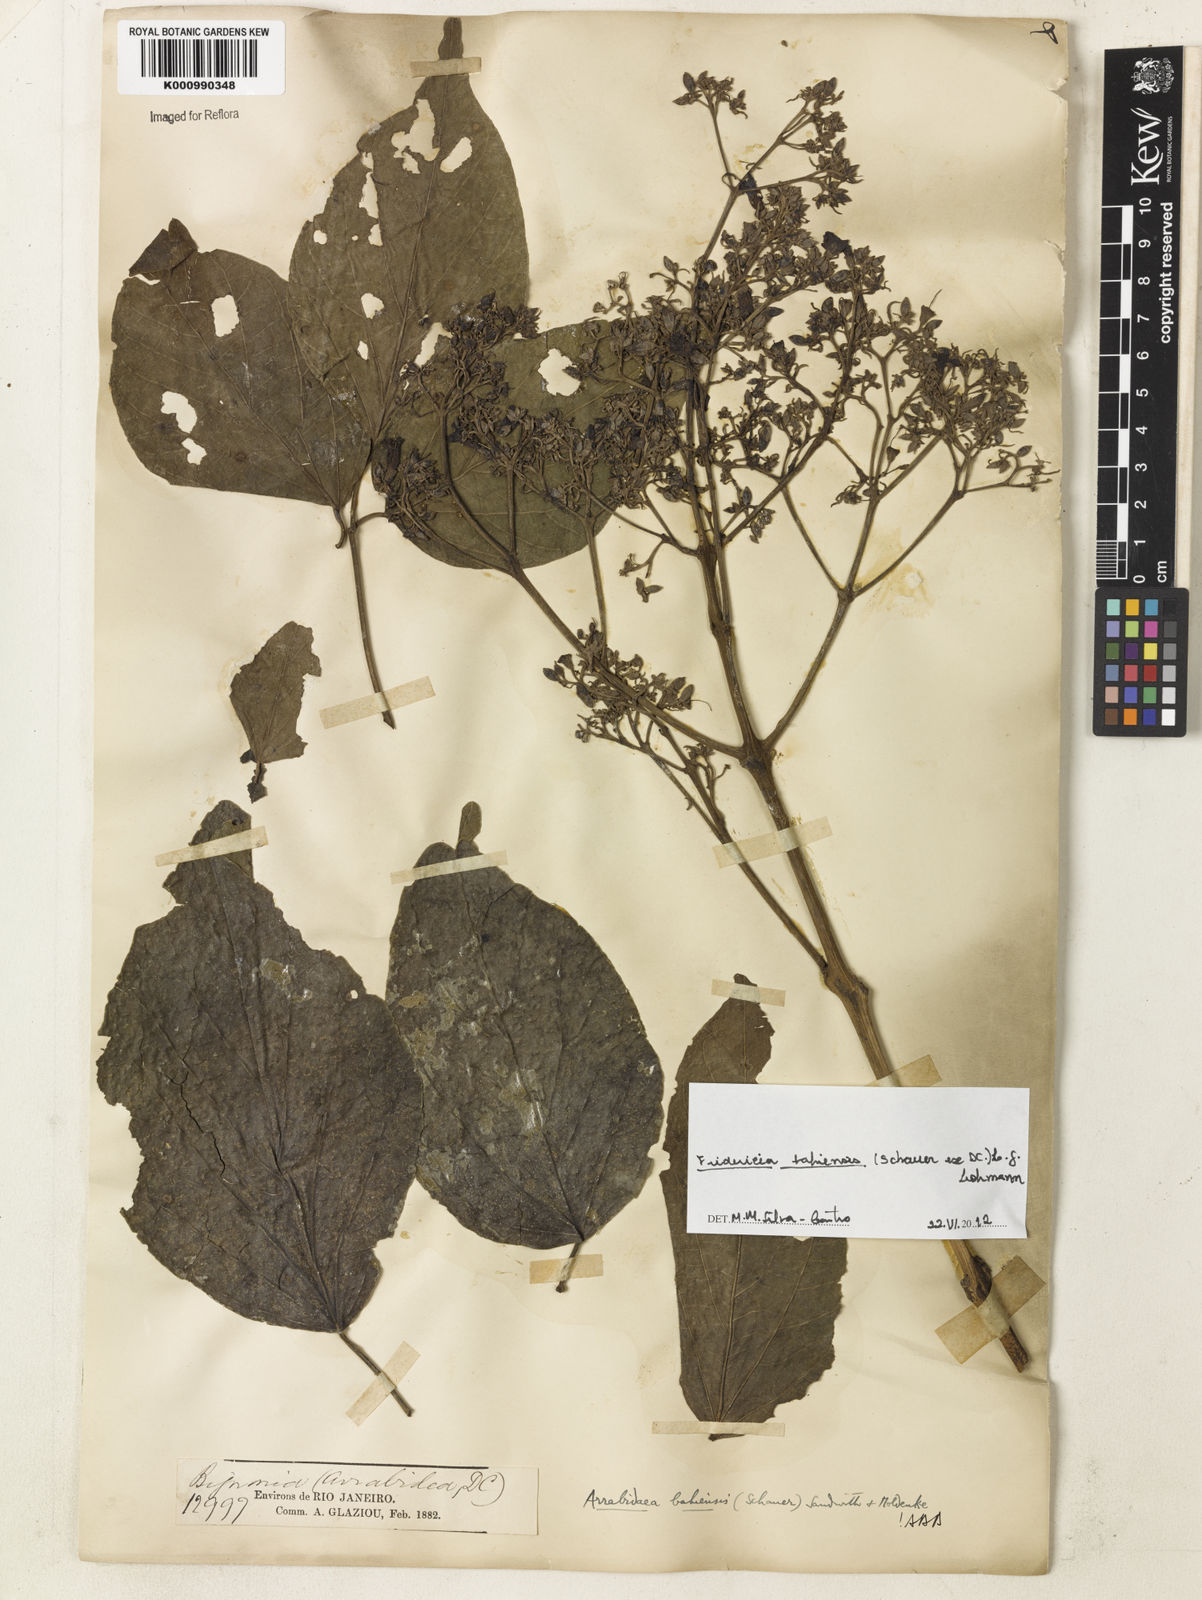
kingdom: Plantae
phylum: Tracheophyta
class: Magnoliopsida
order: Lamiales
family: Bignoniaceae
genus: Fridericia
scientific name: Fridericia bahiensis
